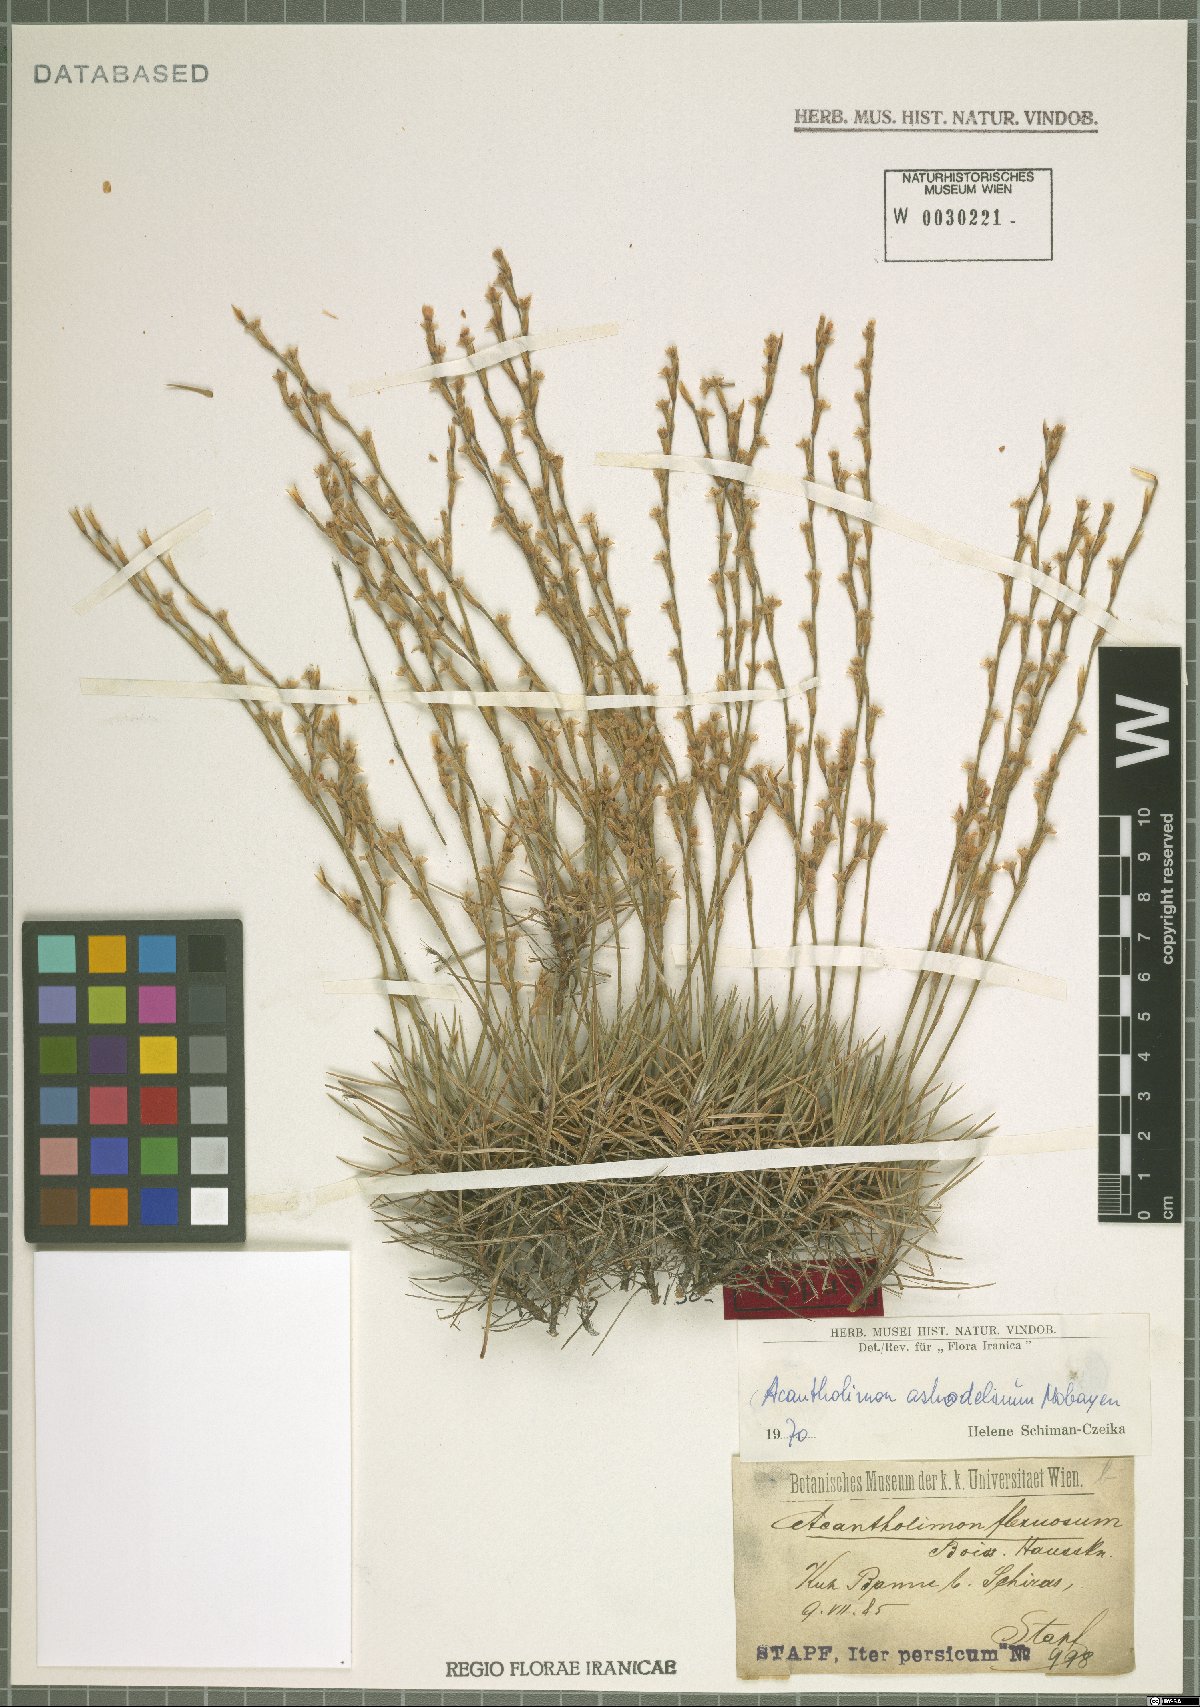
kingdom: Plantae
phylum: Tracheophyta
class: Magnoliopsida
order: Caryophyllales
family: Plumbaginaceae
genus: Acantholimon
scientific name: Acantholimon asphodelinum
